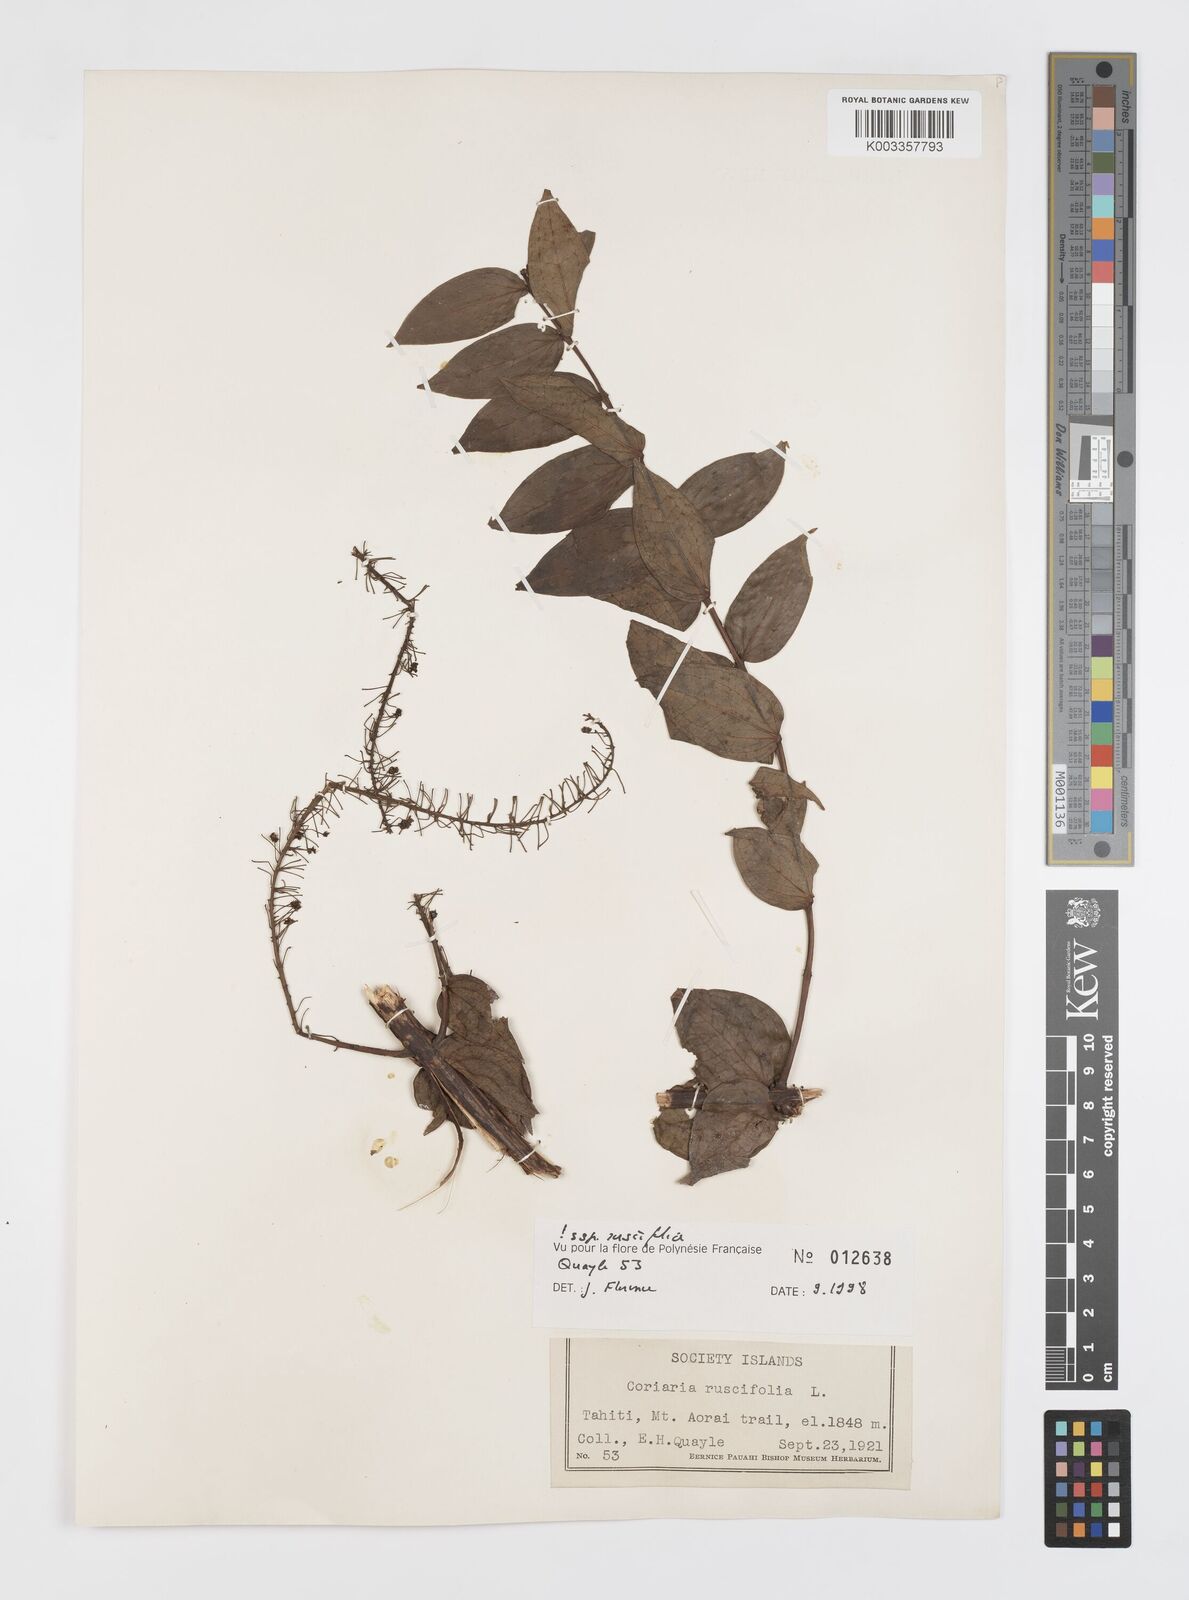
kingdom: Plantae
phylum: Tracheophyta
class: Magnoliopsida
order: Cucurbitales
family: Coriariaceae
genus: Coriaria
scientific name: Coriaria ruscifolia
